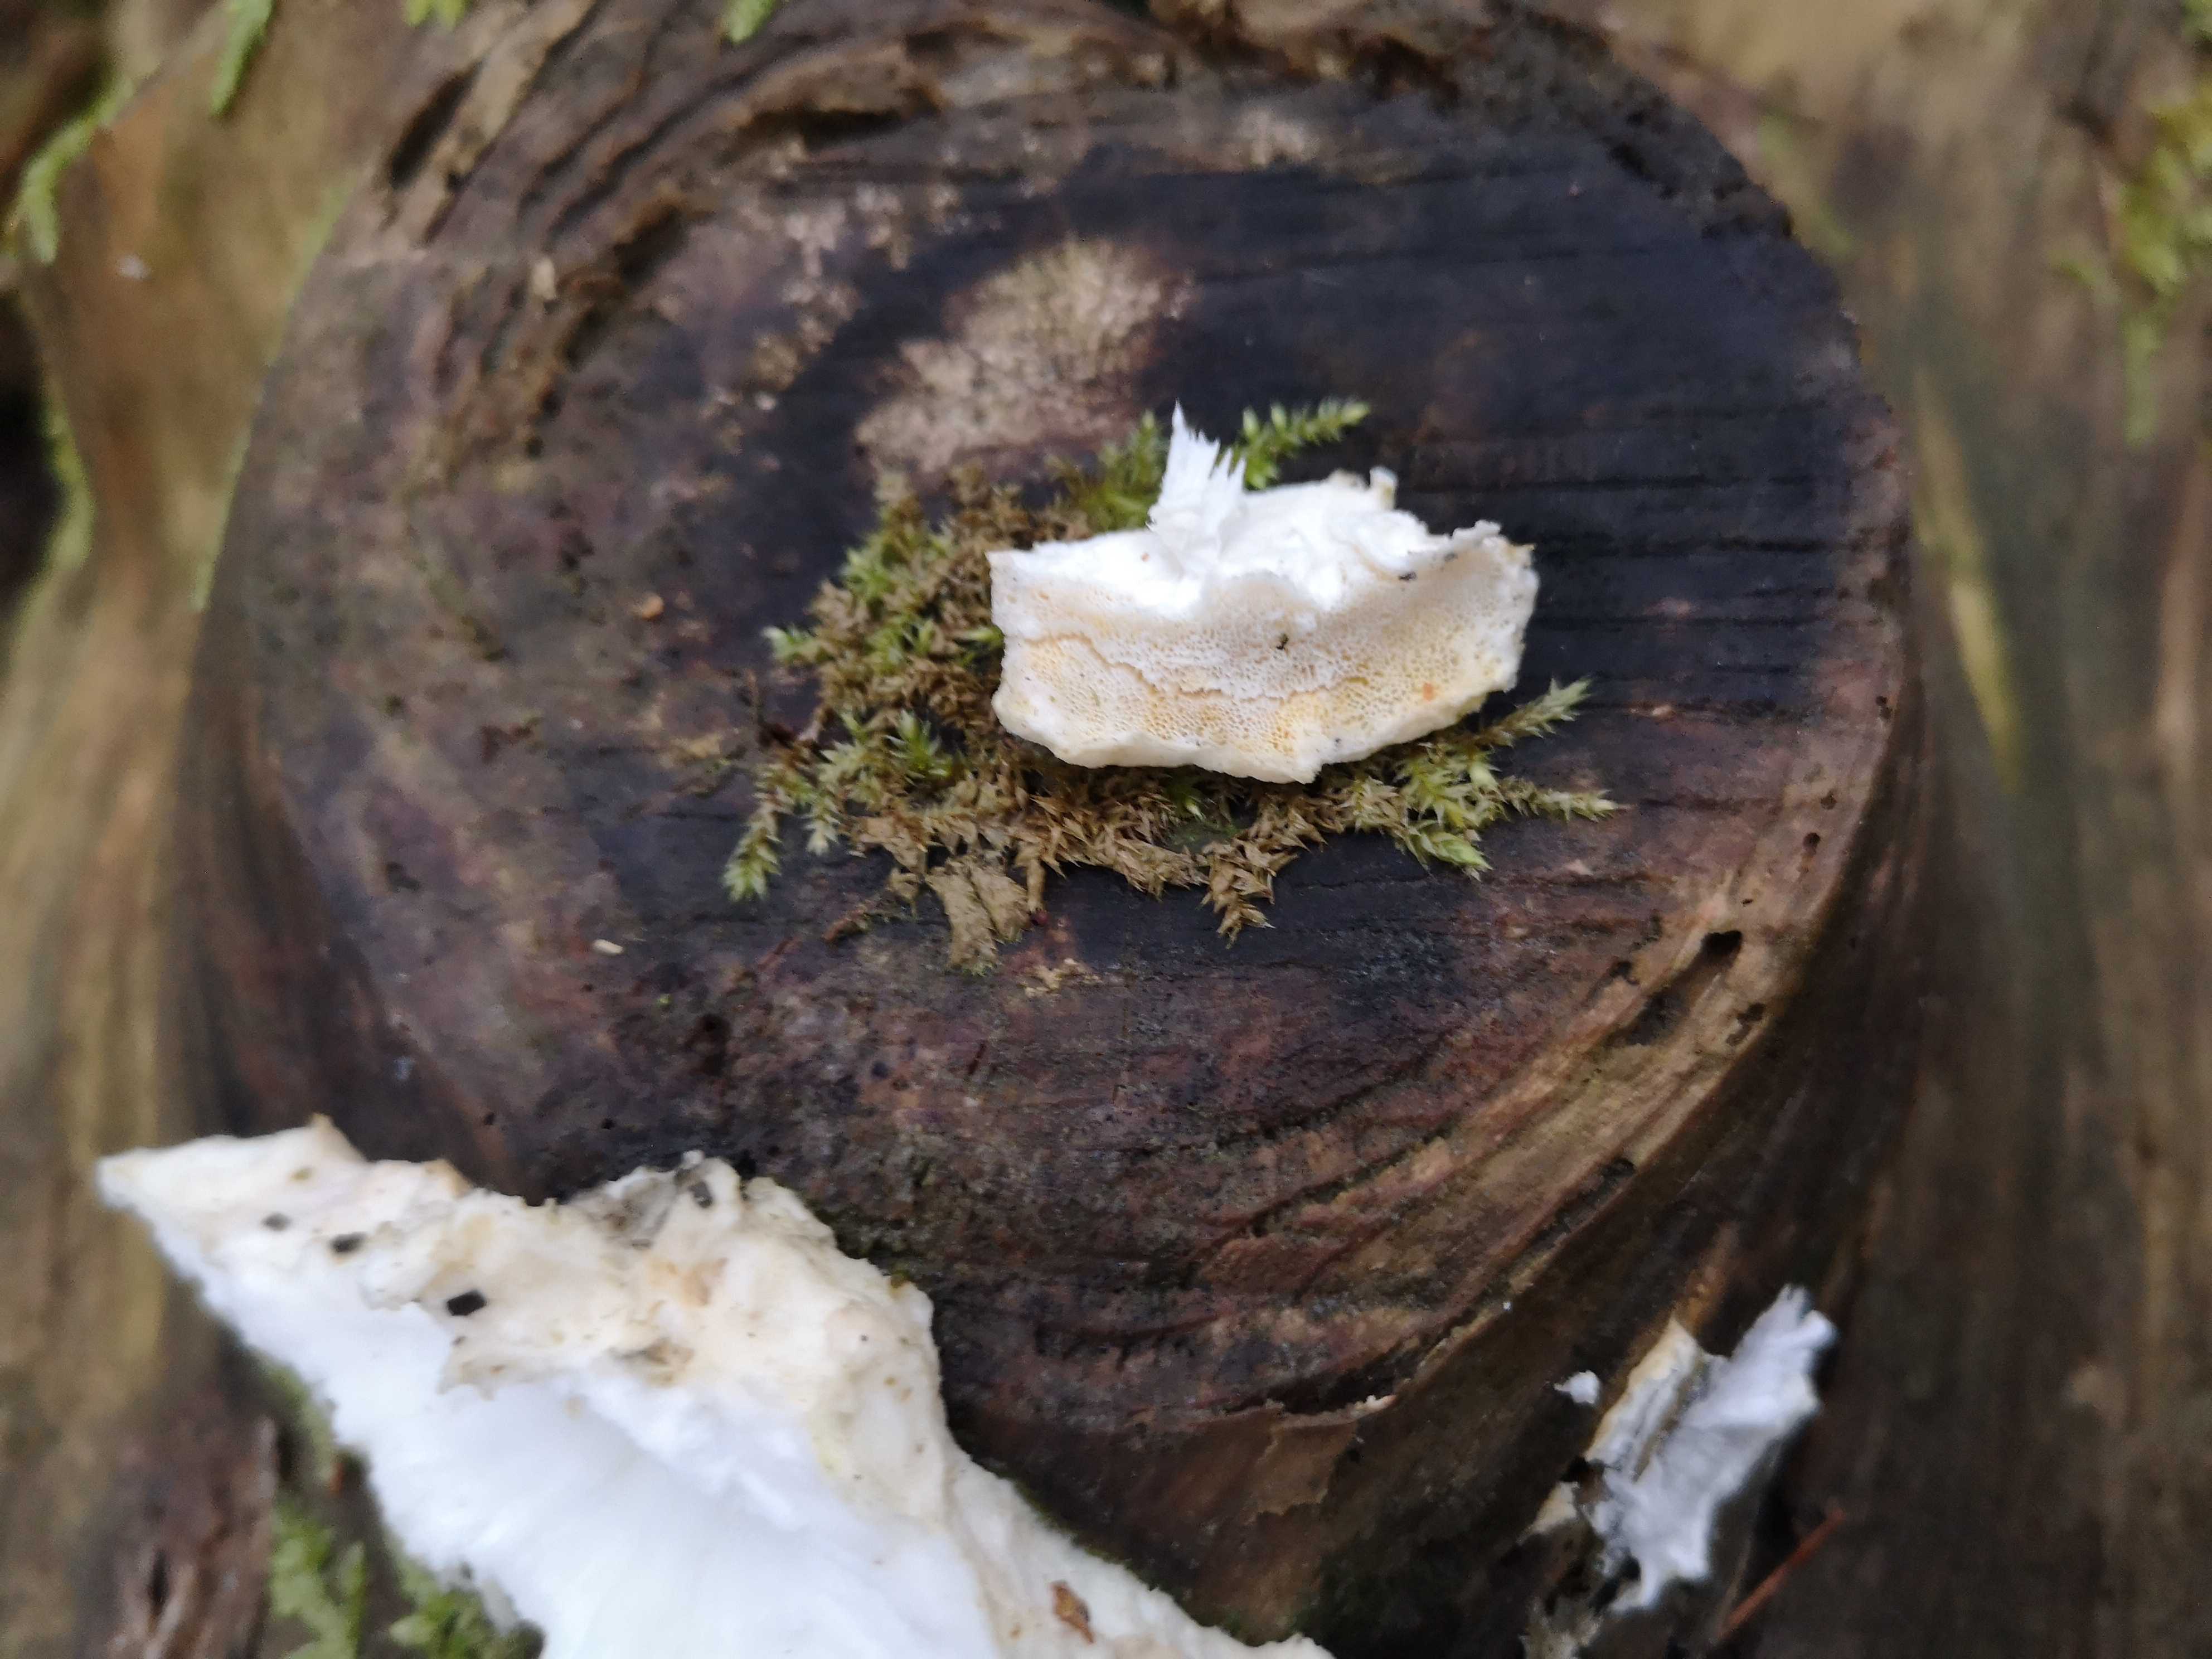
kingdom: Fungi
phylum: Basidiomycota
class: Agaricomycetes
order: Polyporales
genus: Amaropostia
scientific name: Amaropostia stiptica
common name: bitter kødporesvamp
